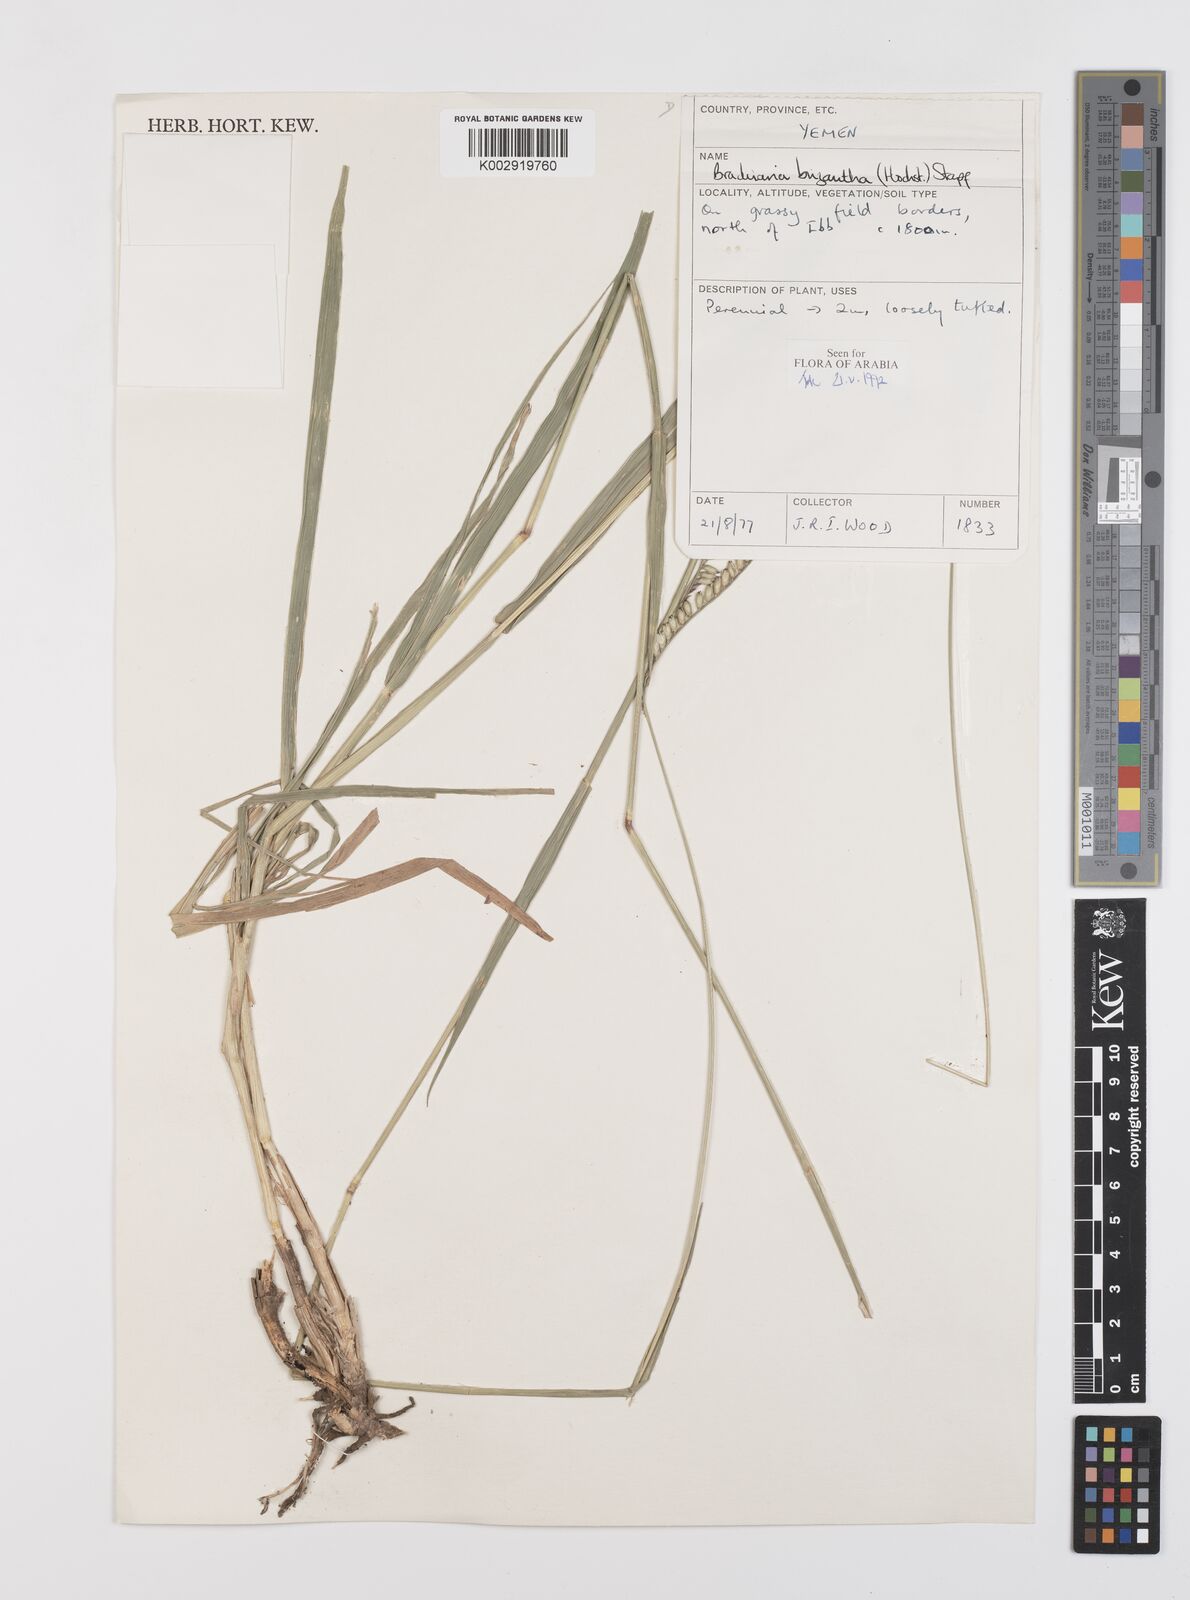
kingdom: Plantae
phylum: Tracheophyta
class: Liliopsida
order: Poales
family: Poaceae
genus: Urochloa
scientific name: Urochloa brizantha
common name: Palisade signalgrass
